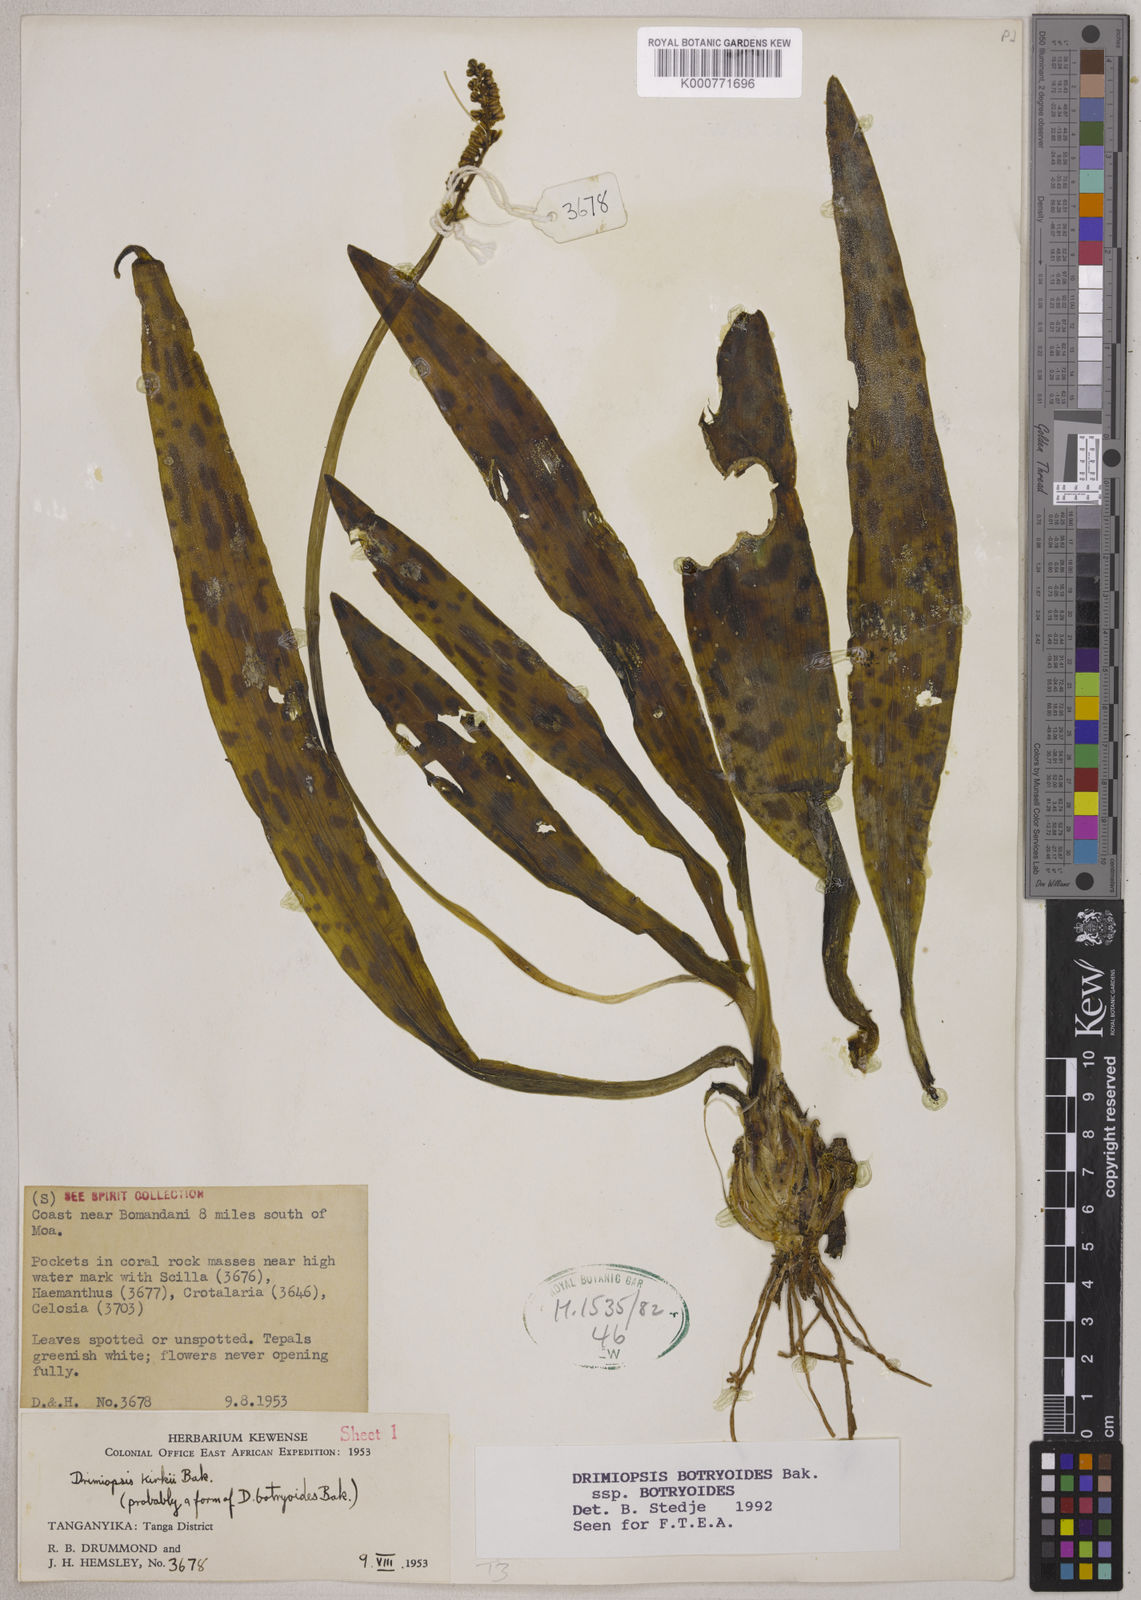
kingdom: Plantae
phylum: Tracheophyta
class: Liliopsida
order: Asparagales
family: Asparagaceae
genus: Drimiopsis
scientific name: Drimiopsis botryoides
